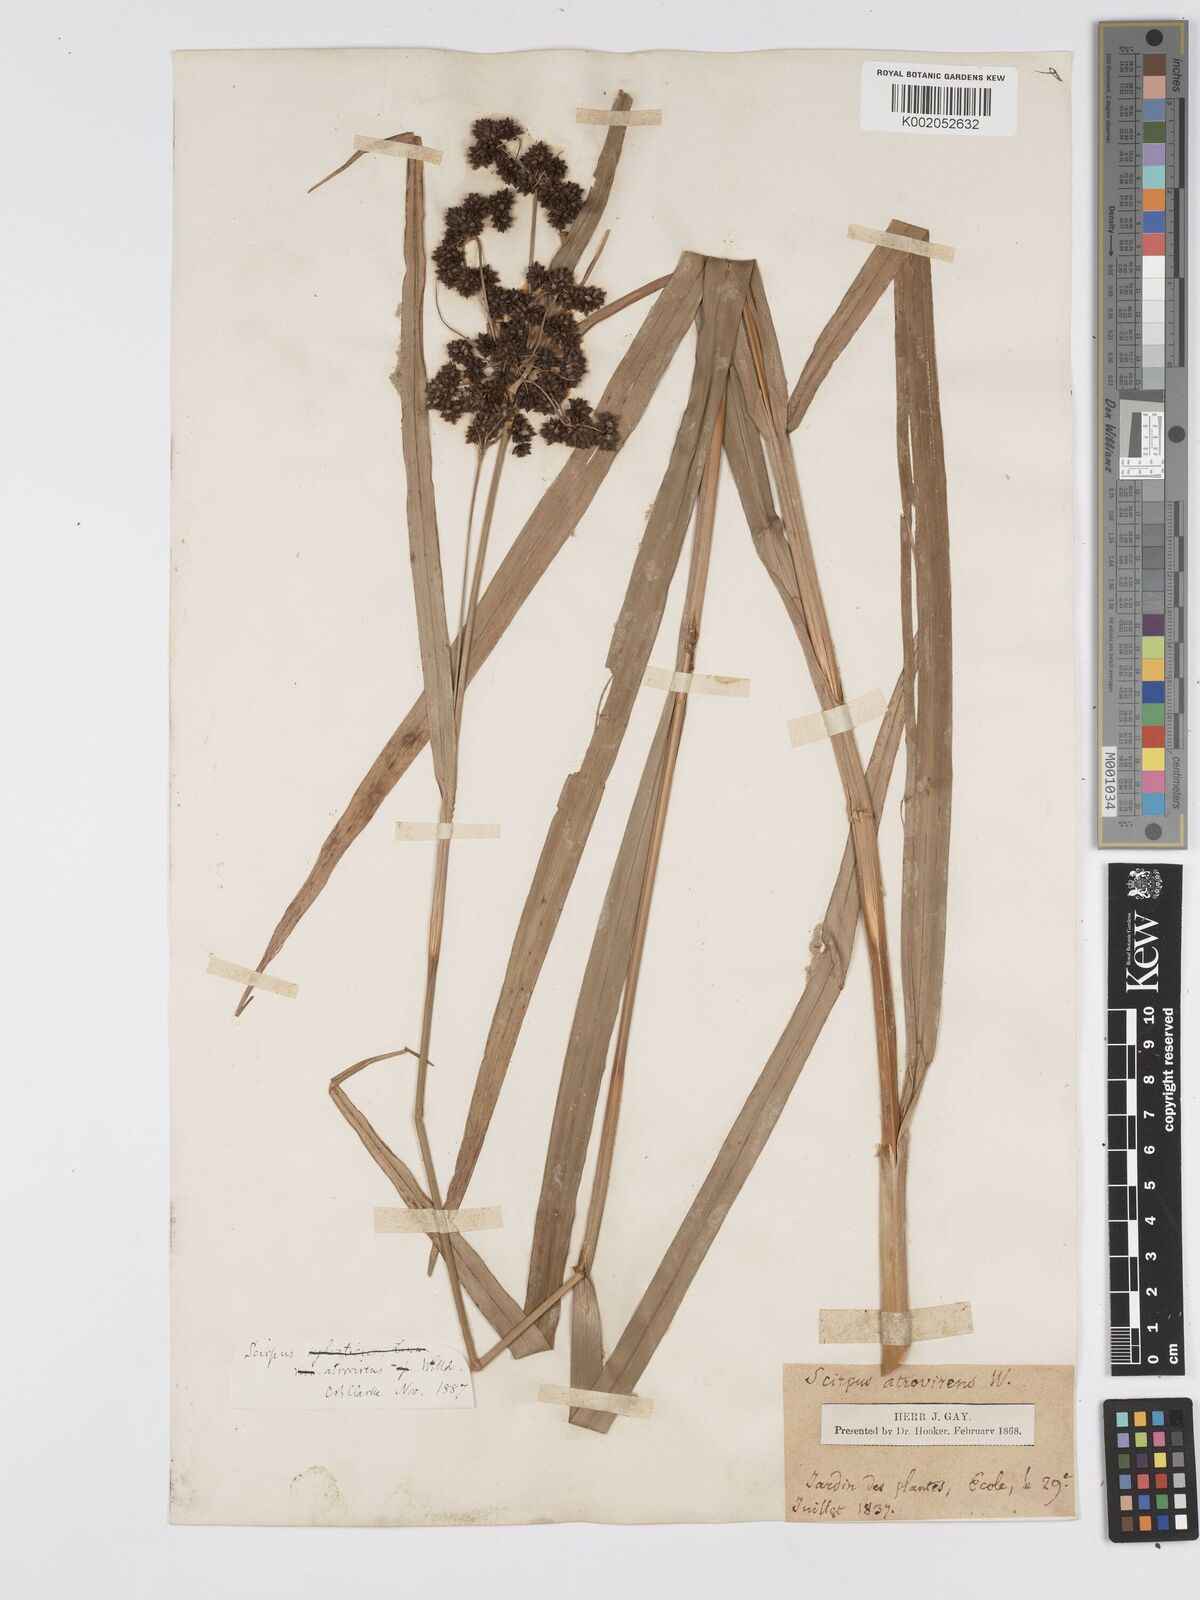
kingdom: Plantae
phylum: Tracheophyta
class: Liliopsida
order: Poales
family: Cyperaceae
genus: Scirpus
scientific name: Scirpus atrovirens
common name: Black bulrush
